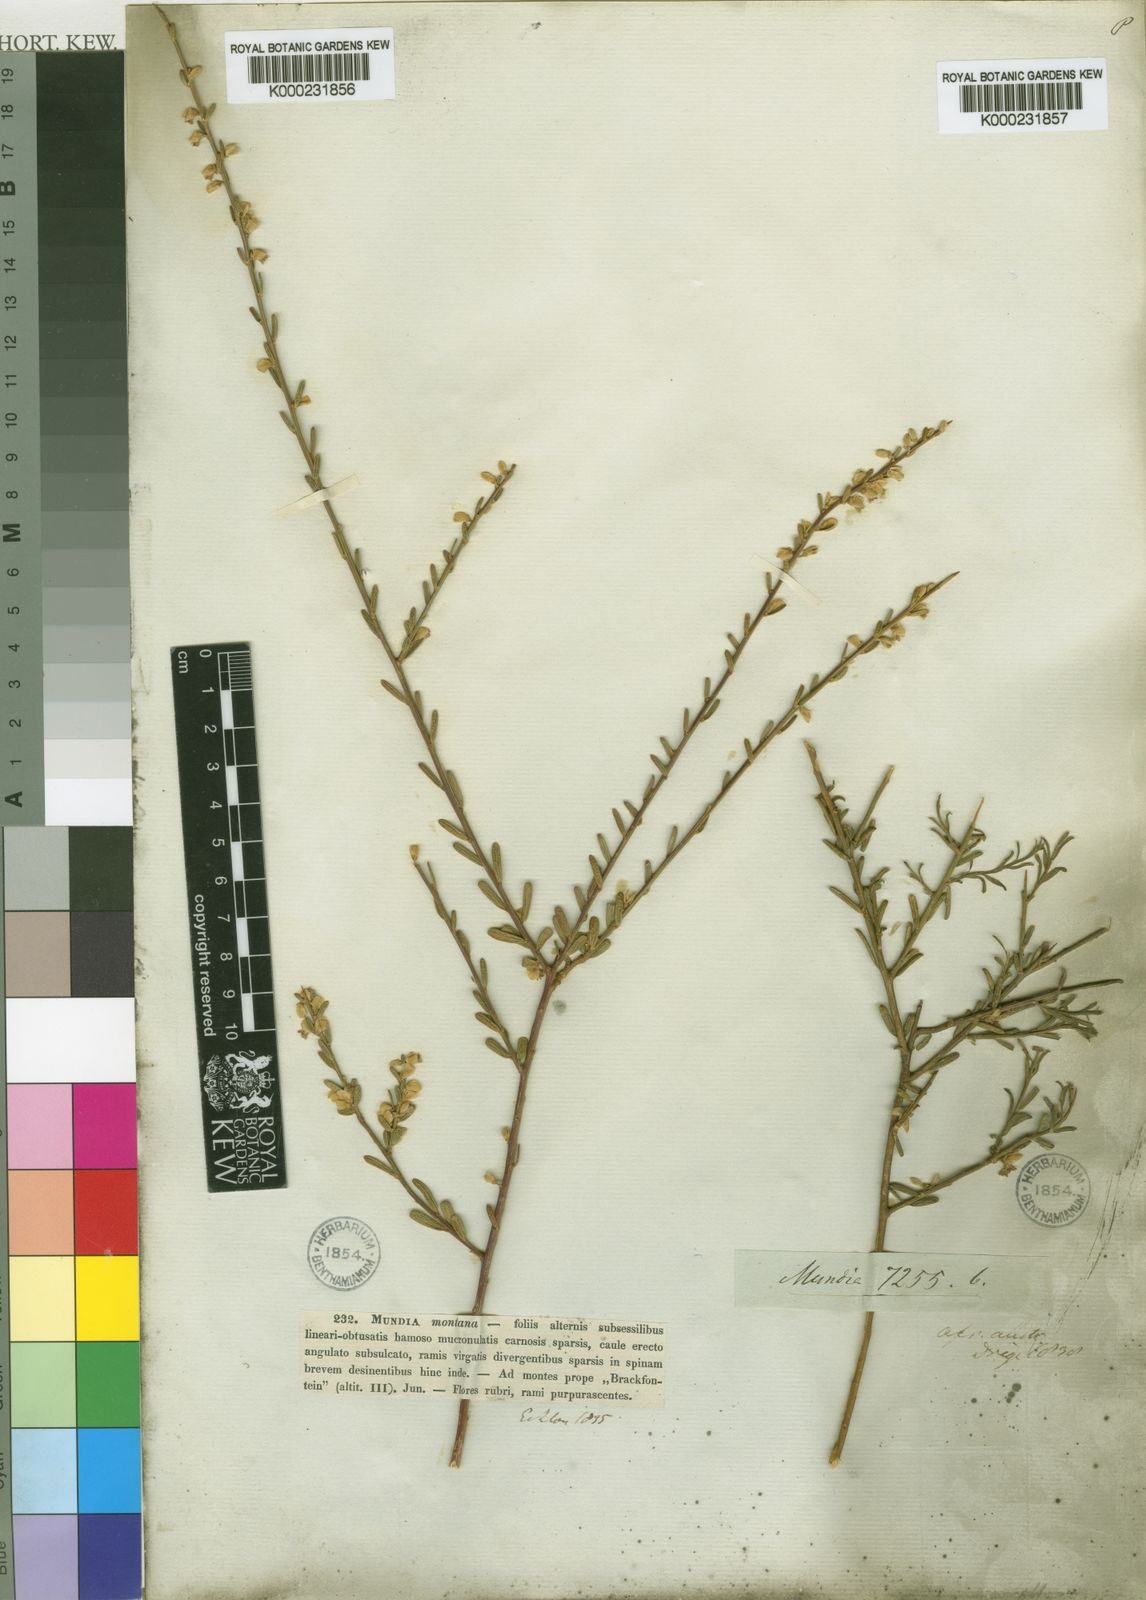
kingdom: Plantae
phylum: Tracheophyta
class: Magnoliopsida
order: Fabales
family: Polygalaceae
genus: Muraltia
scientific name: Muraltia spinosa
